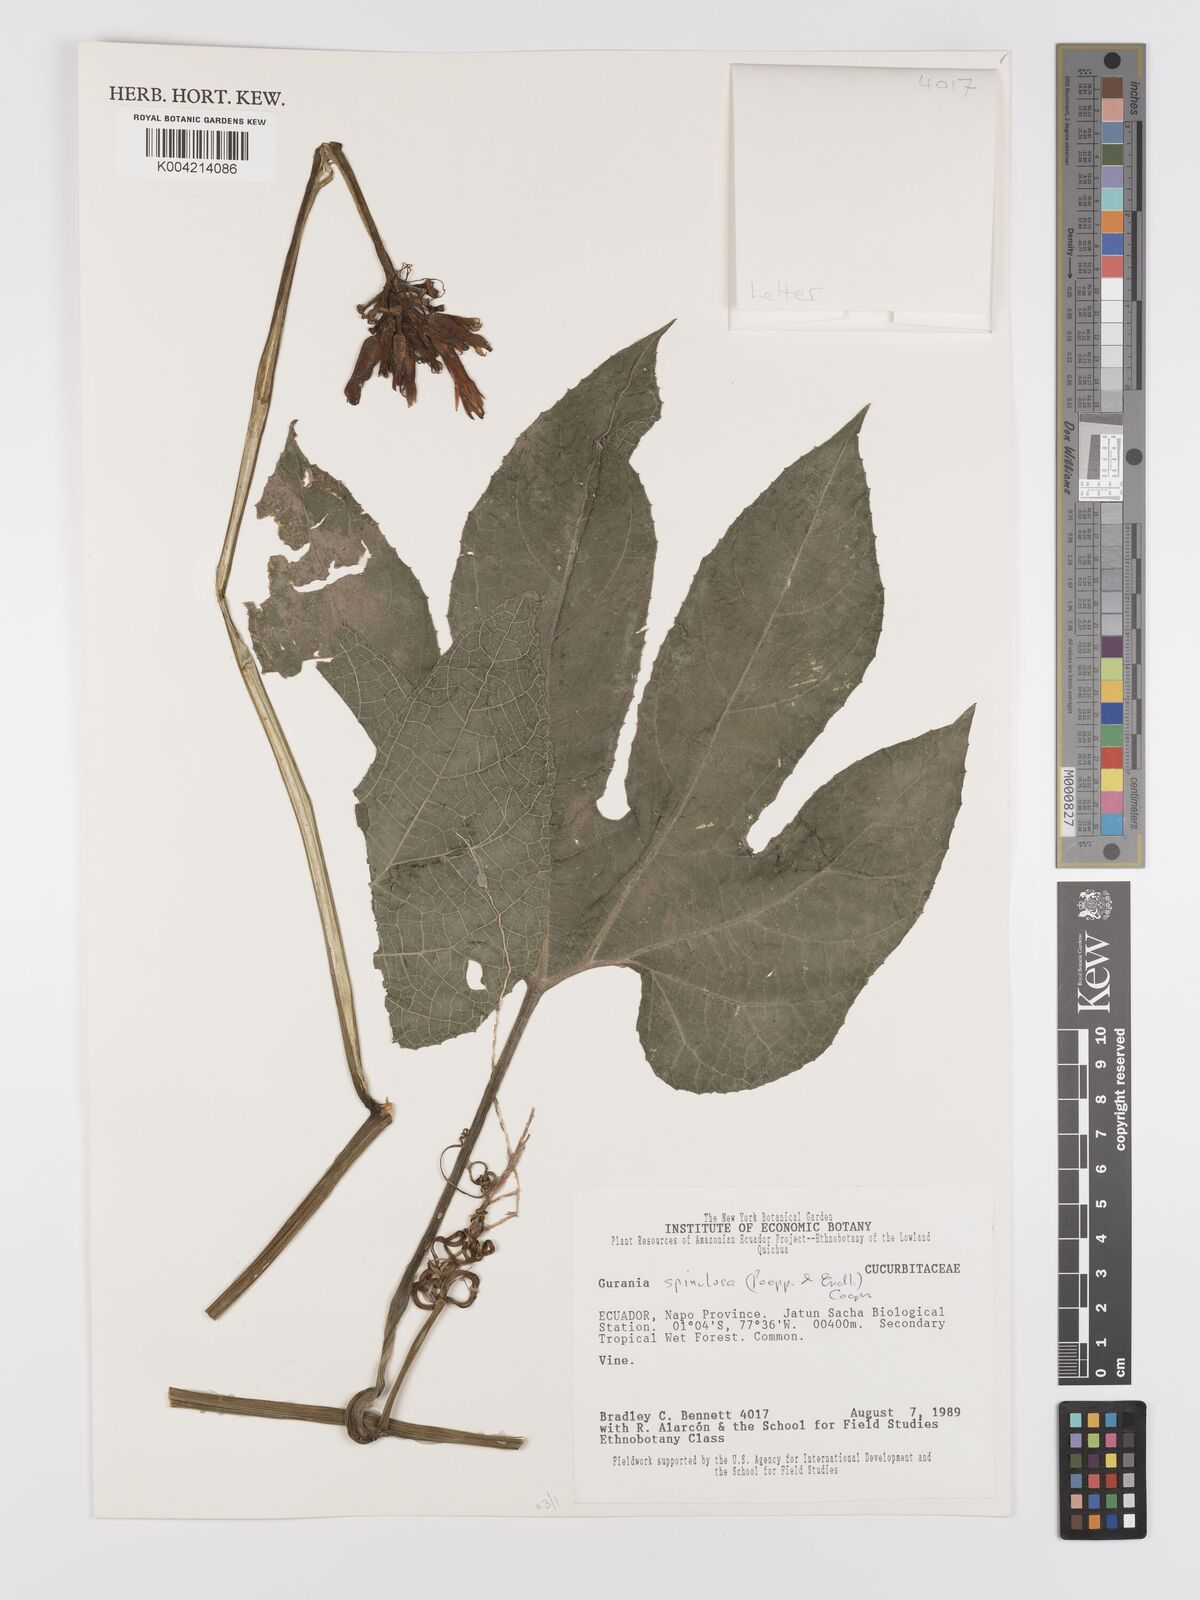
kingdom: Plantae
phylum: Tracheophyta
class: Magnoliopsida
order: Cucurbitales
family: Cucurbitaceae
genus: Gurania
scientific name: Gurania lobata
